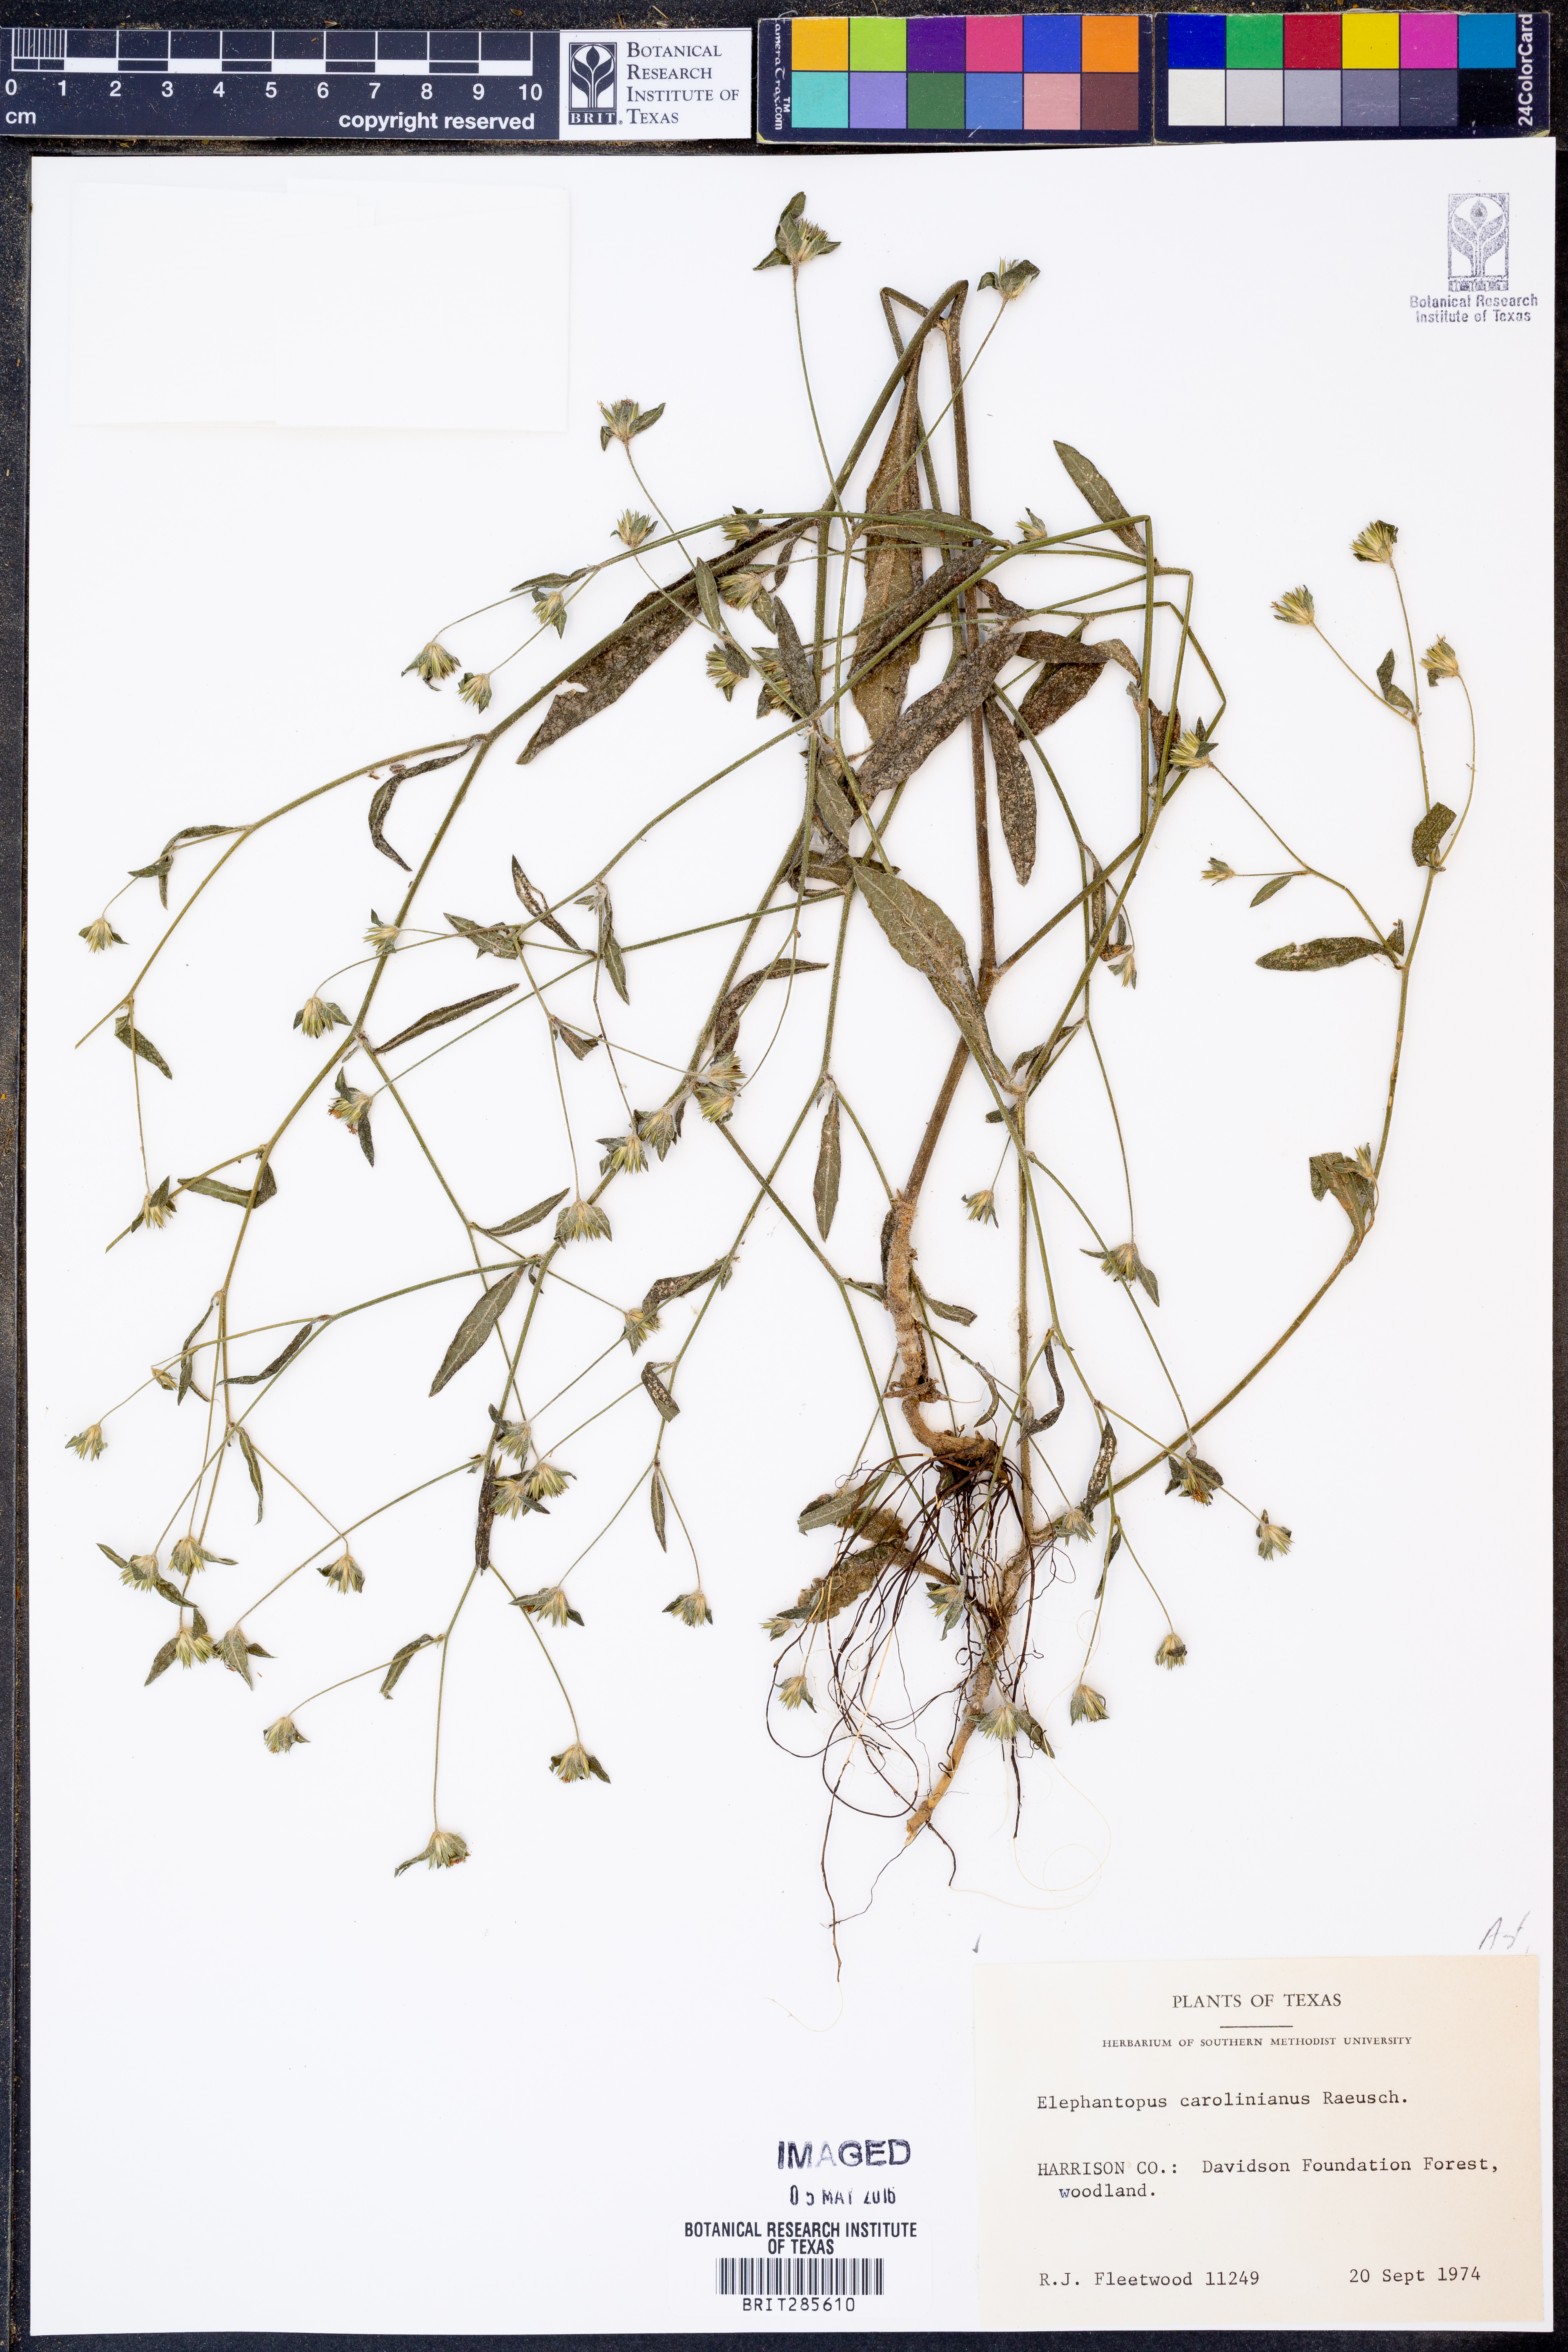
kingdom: Plantae
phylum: Tracheophyta
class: Magnoliopsida
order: Asterales
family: Asteraceae
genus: Elephantopus
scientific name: Elephantopus carolinianus
